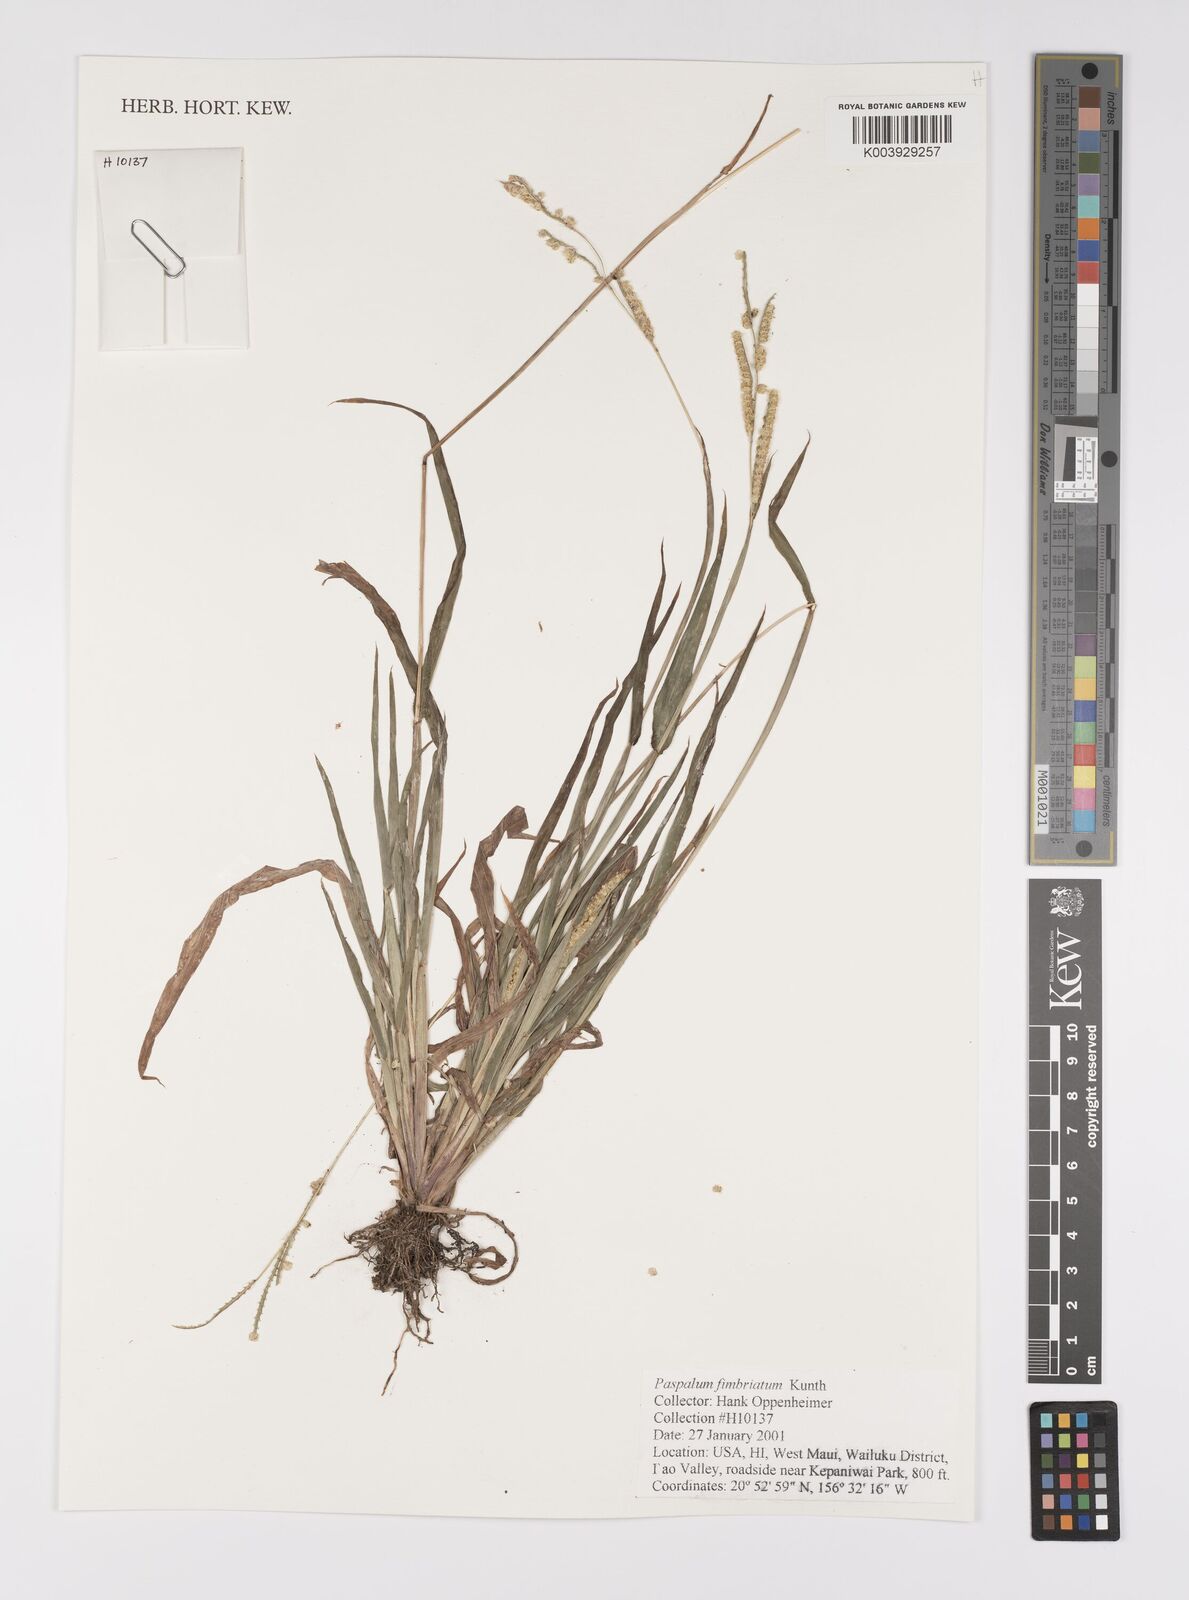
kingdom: Plantae
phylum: Tracheophyta
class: Liliopsida
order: Poales
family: Poaceae
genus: Paspalum
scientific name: Paspalum fimbriatum
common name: Panama crowngrass
